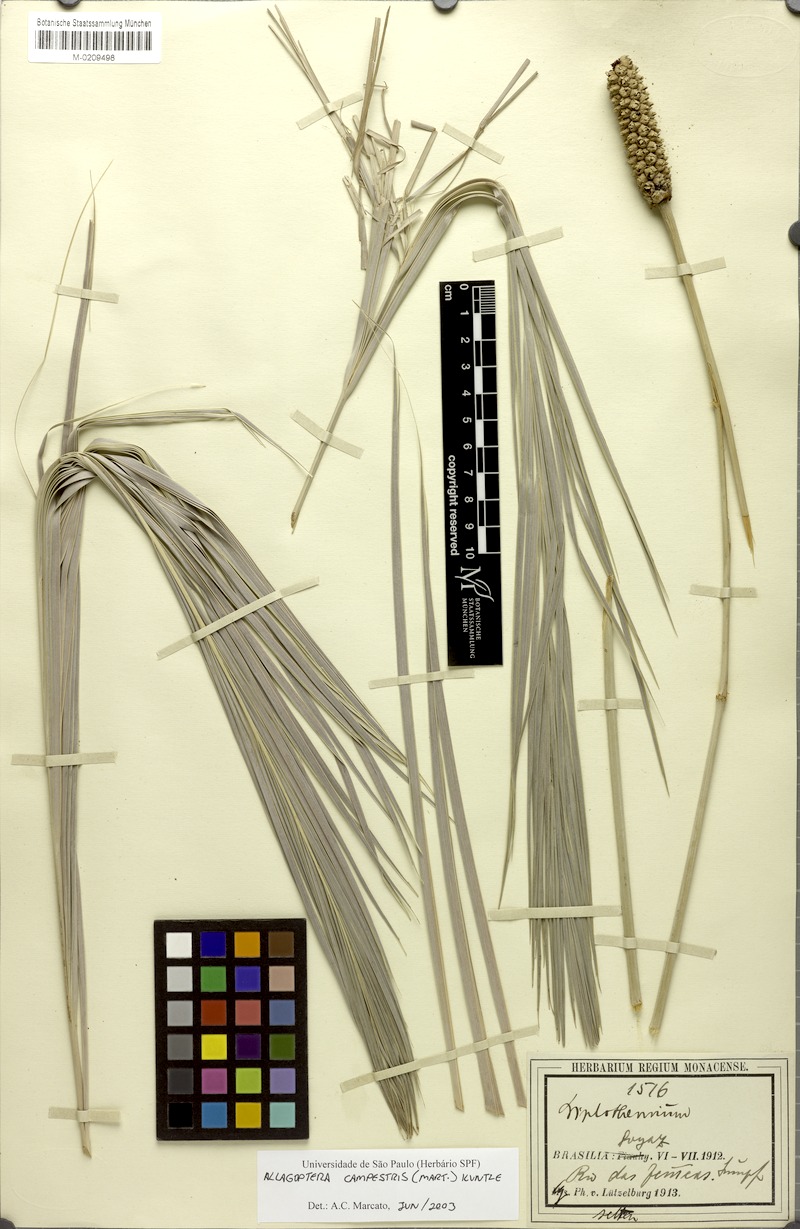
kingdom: Plantae
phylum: Tracheophyta
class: Liliopsida
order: Arecales
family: Arecaceae
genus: Allagoptera
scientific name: Allagoptera campestris
